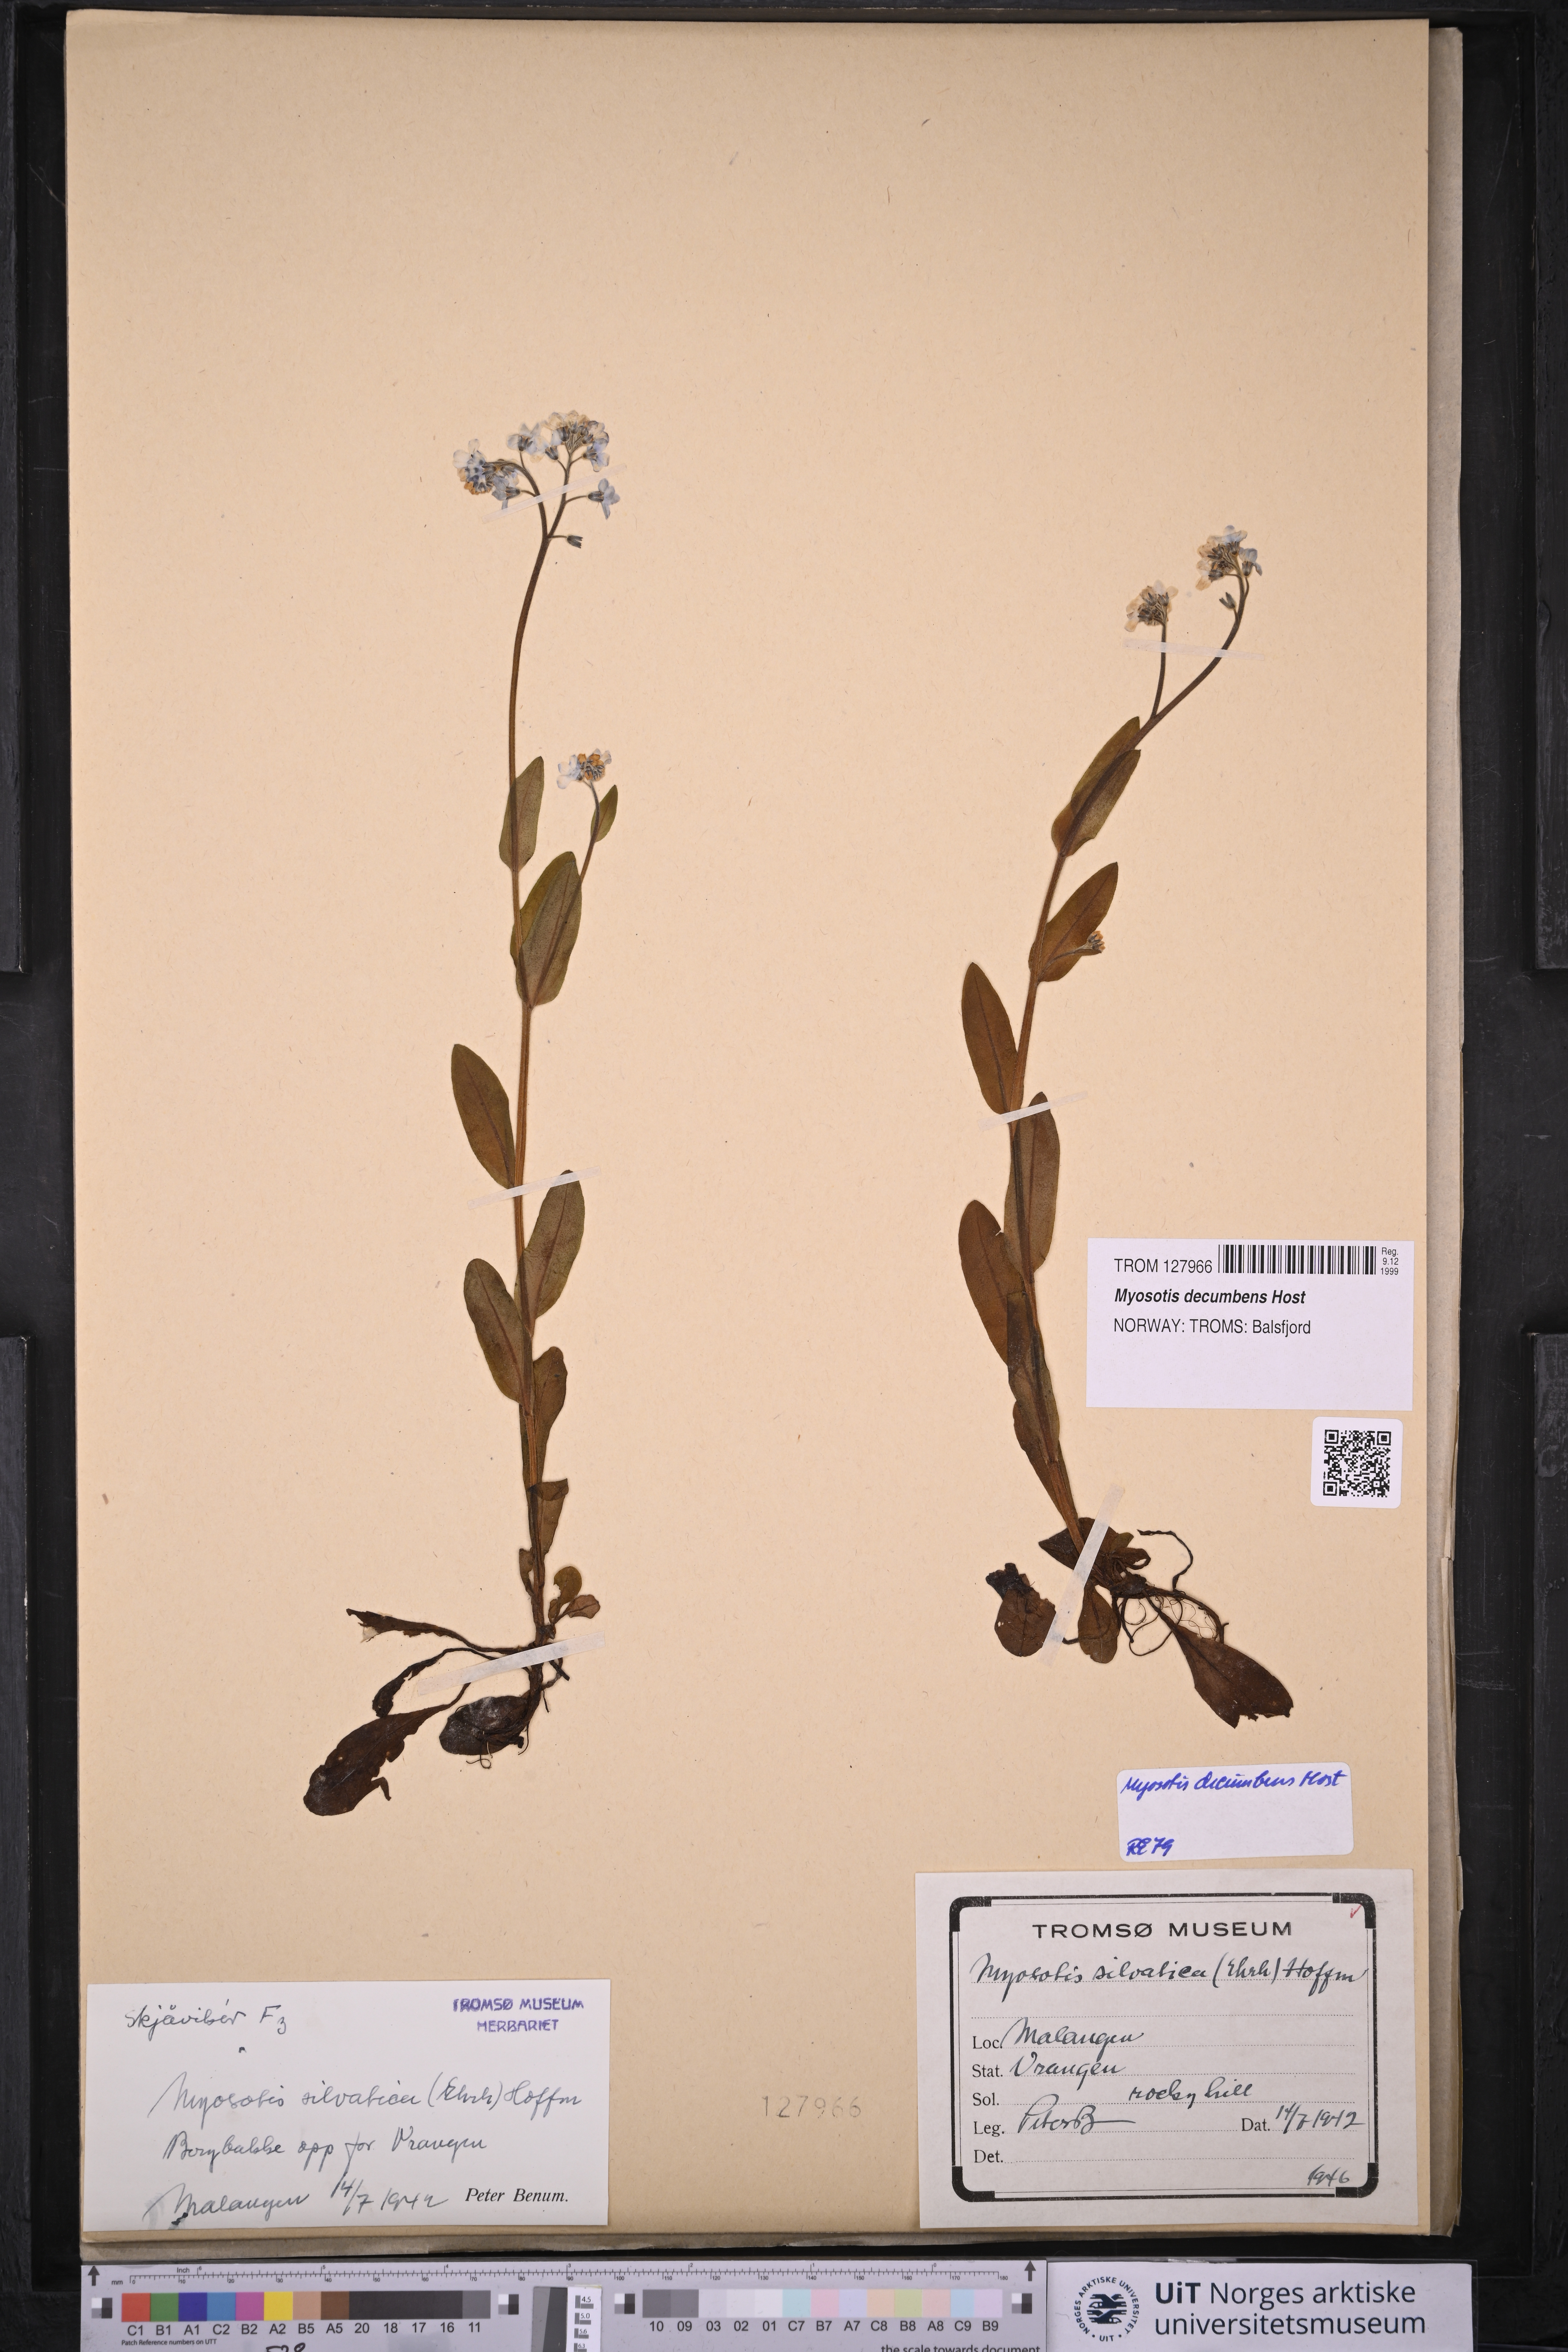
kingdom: Plantae
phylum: Tracheophyta
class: Magnoliopsida
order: Boraginales
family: Boraginaceae
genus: Myosotis
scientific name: Myosotis decumbens
